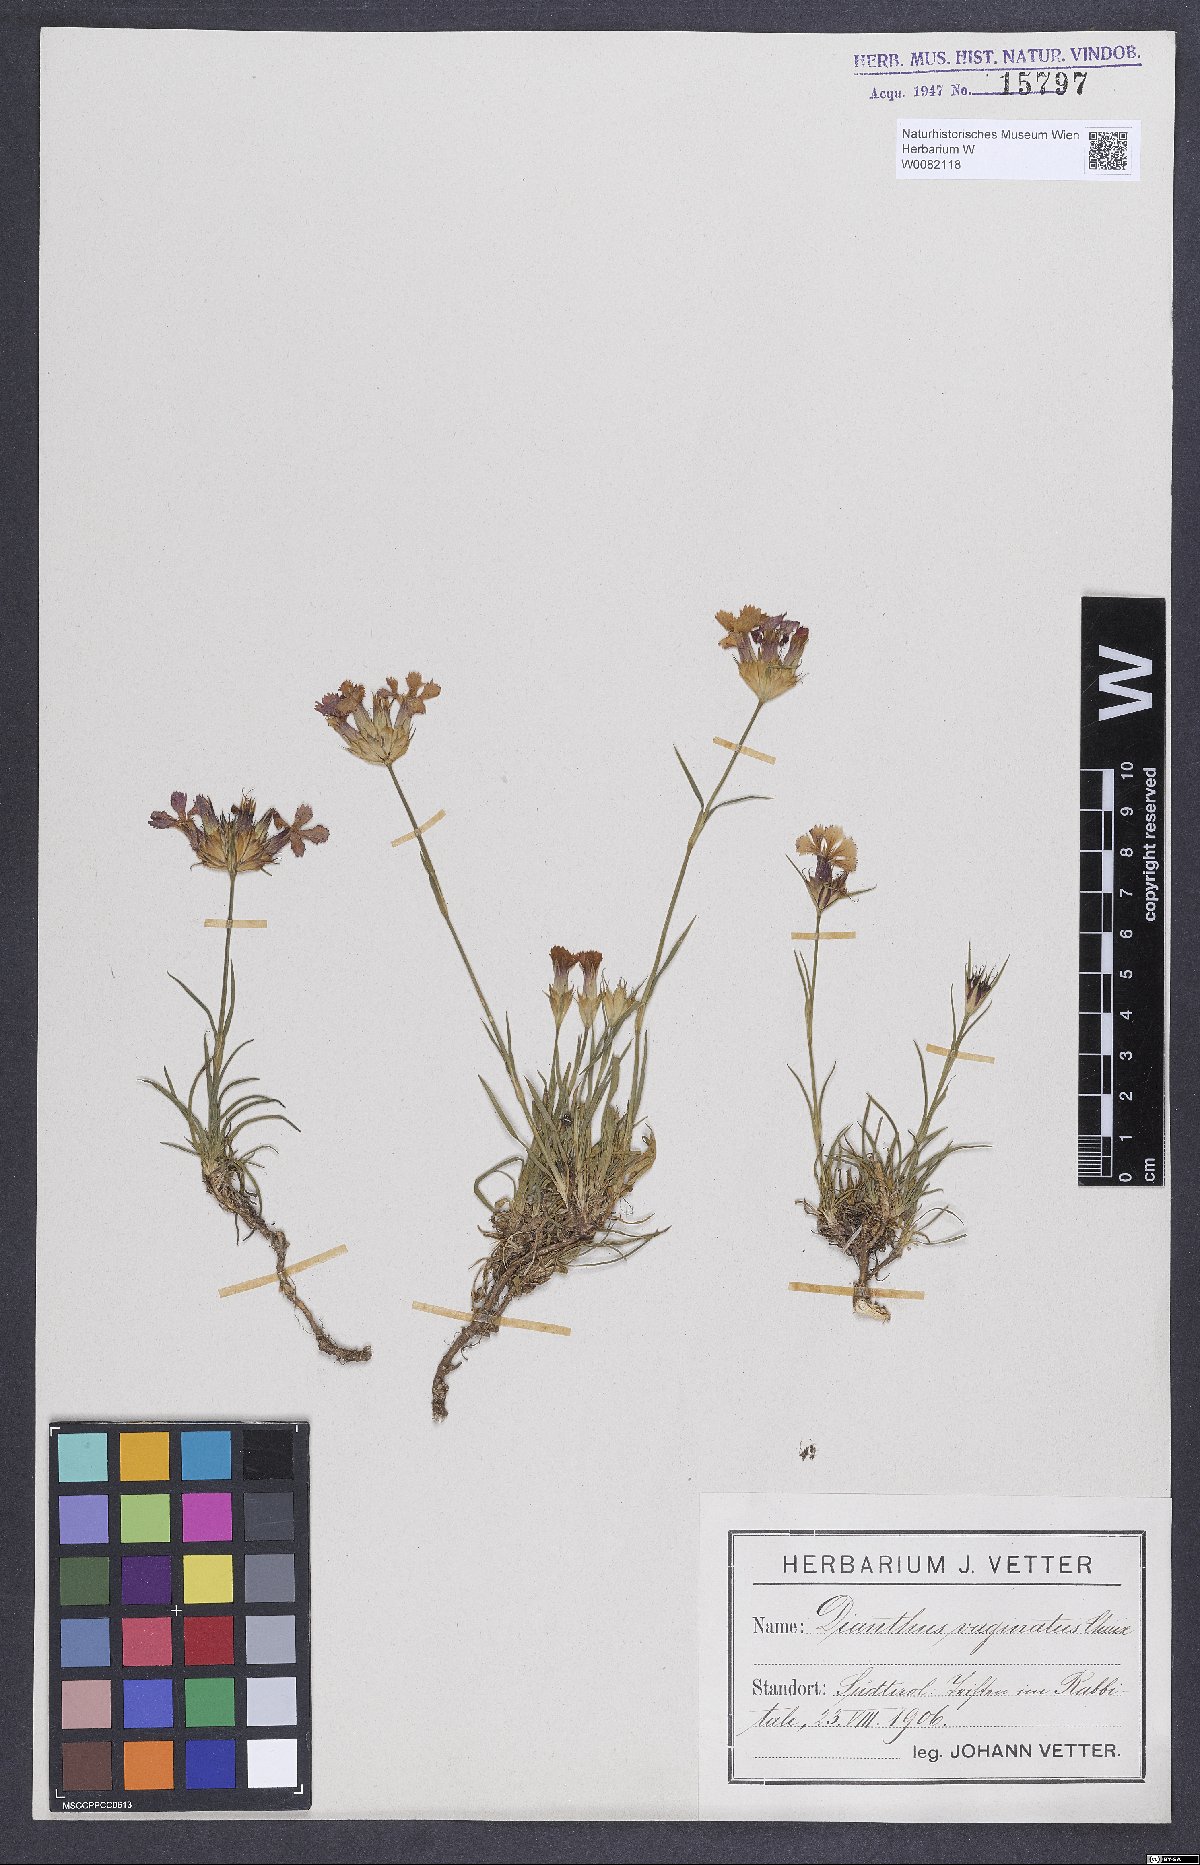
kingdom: Plantae
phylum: Tracheophyta
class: Magnoliopsida
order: Caryophyllales
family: Caryophyllaceae
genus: Dianthus
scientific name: Dianthus carthusianorum
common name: Carthusian pink
